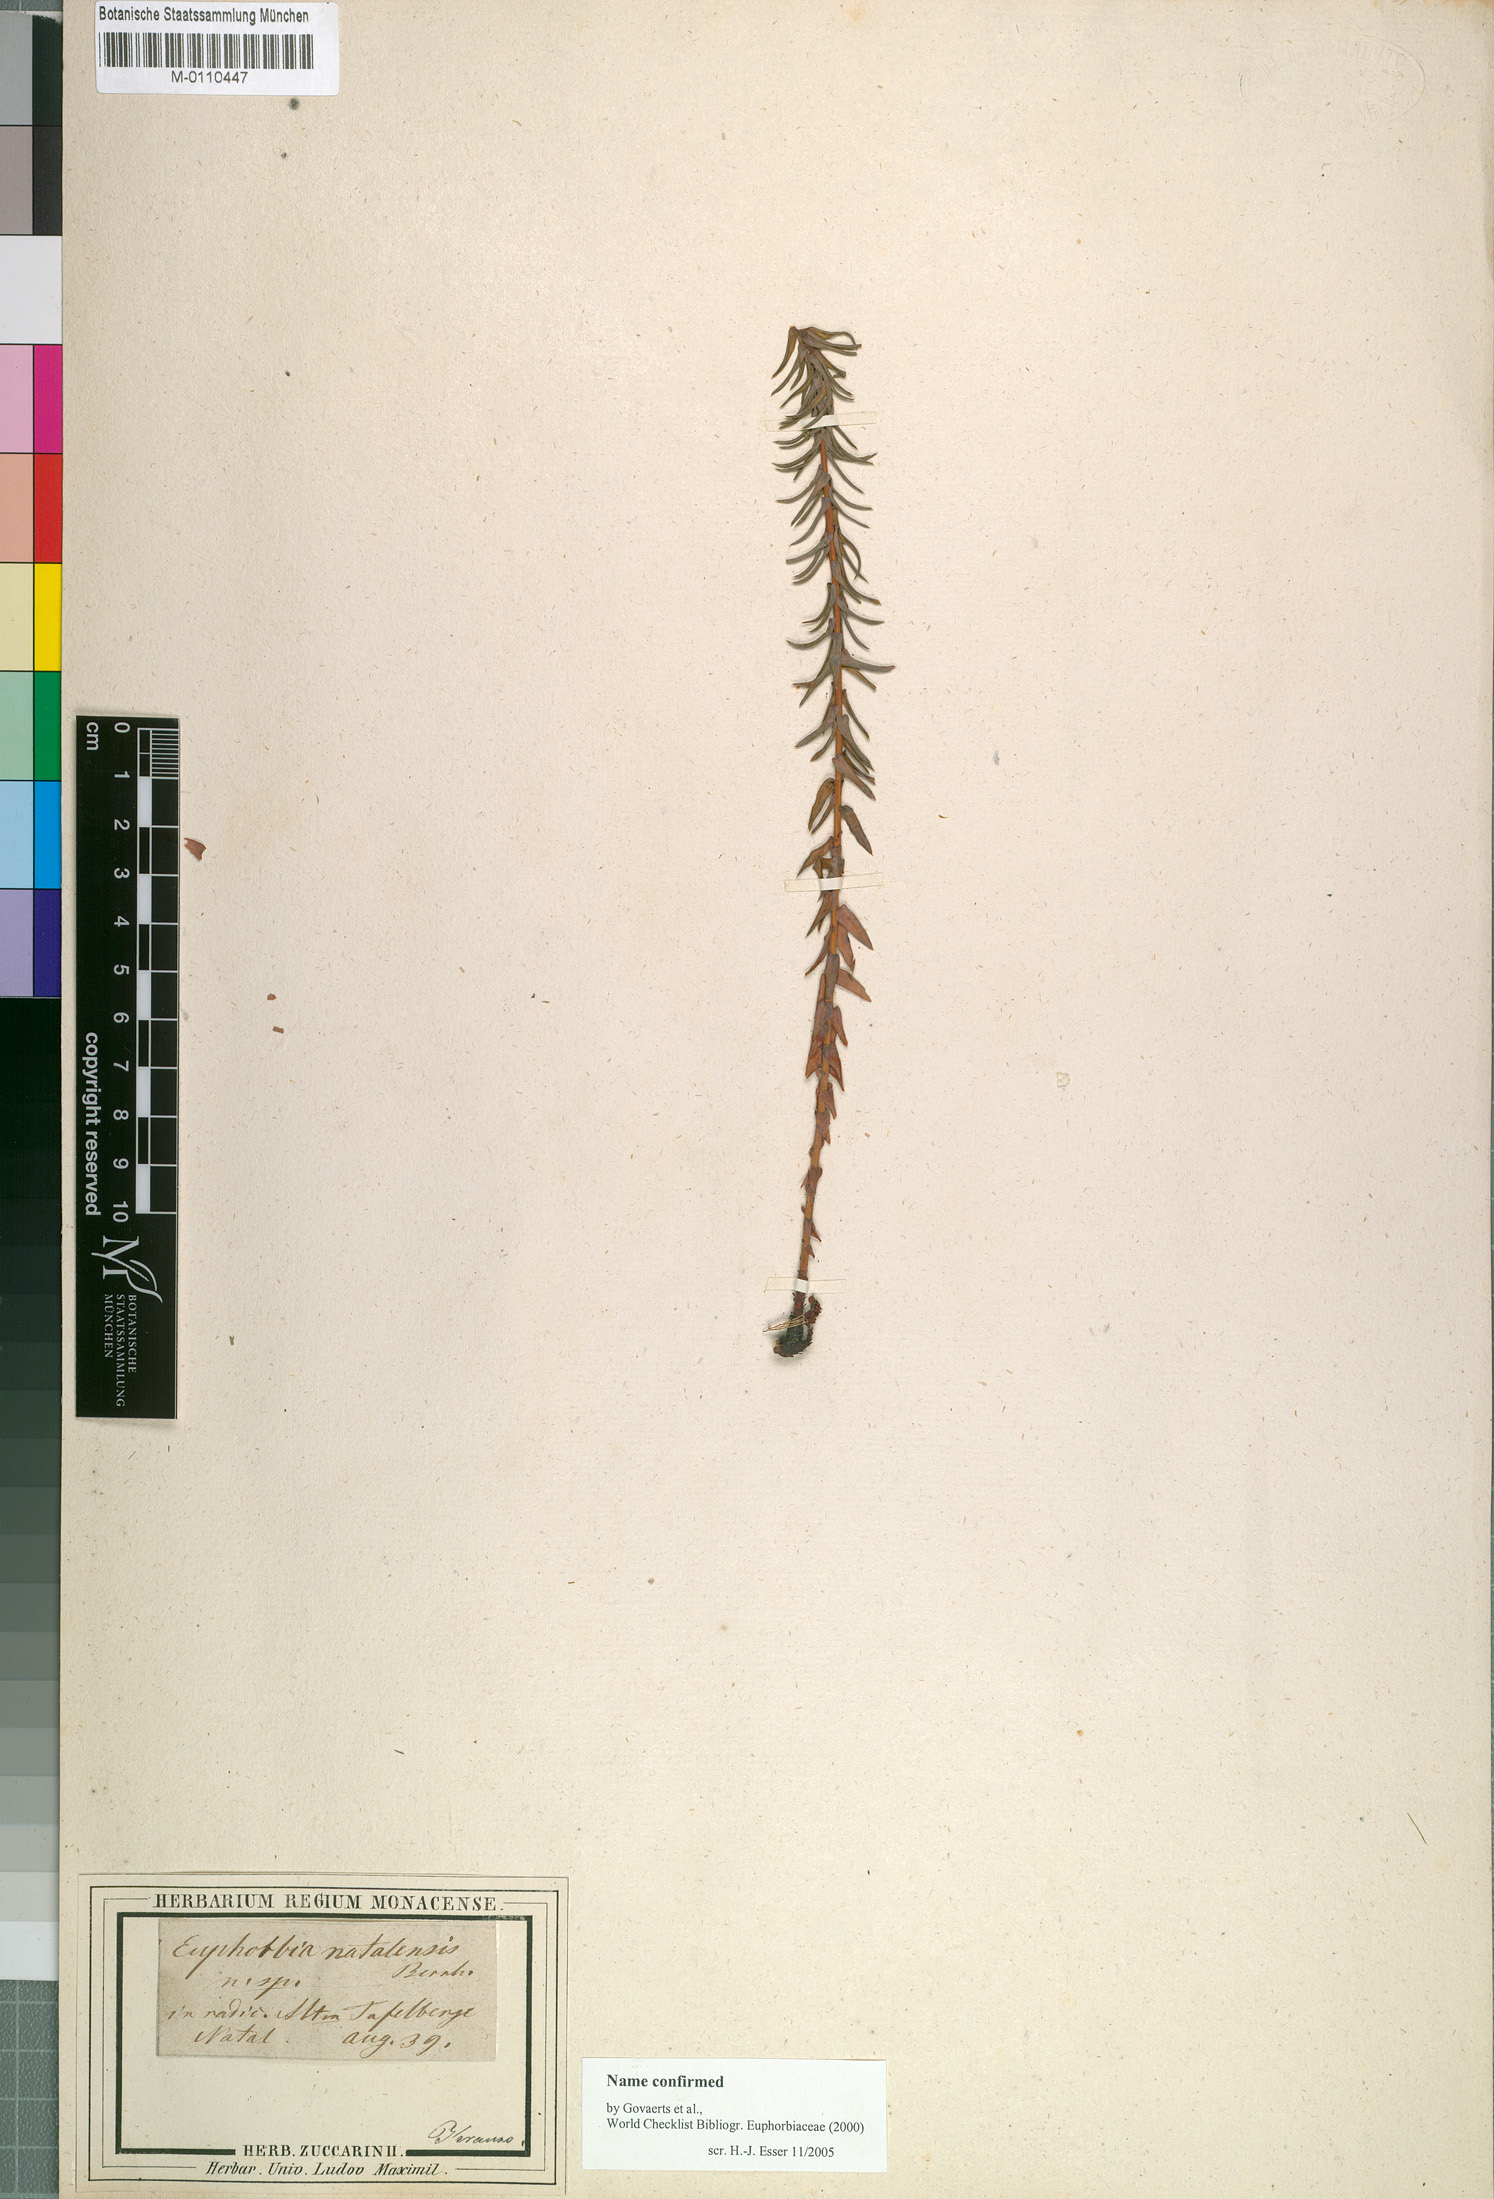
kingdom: Plantae
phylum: Tracheophyta
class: Magnoliopsida
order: Malpighiales
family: Euphorbiaceae
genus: Euphorbia
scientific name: Euphorbia natalensis
